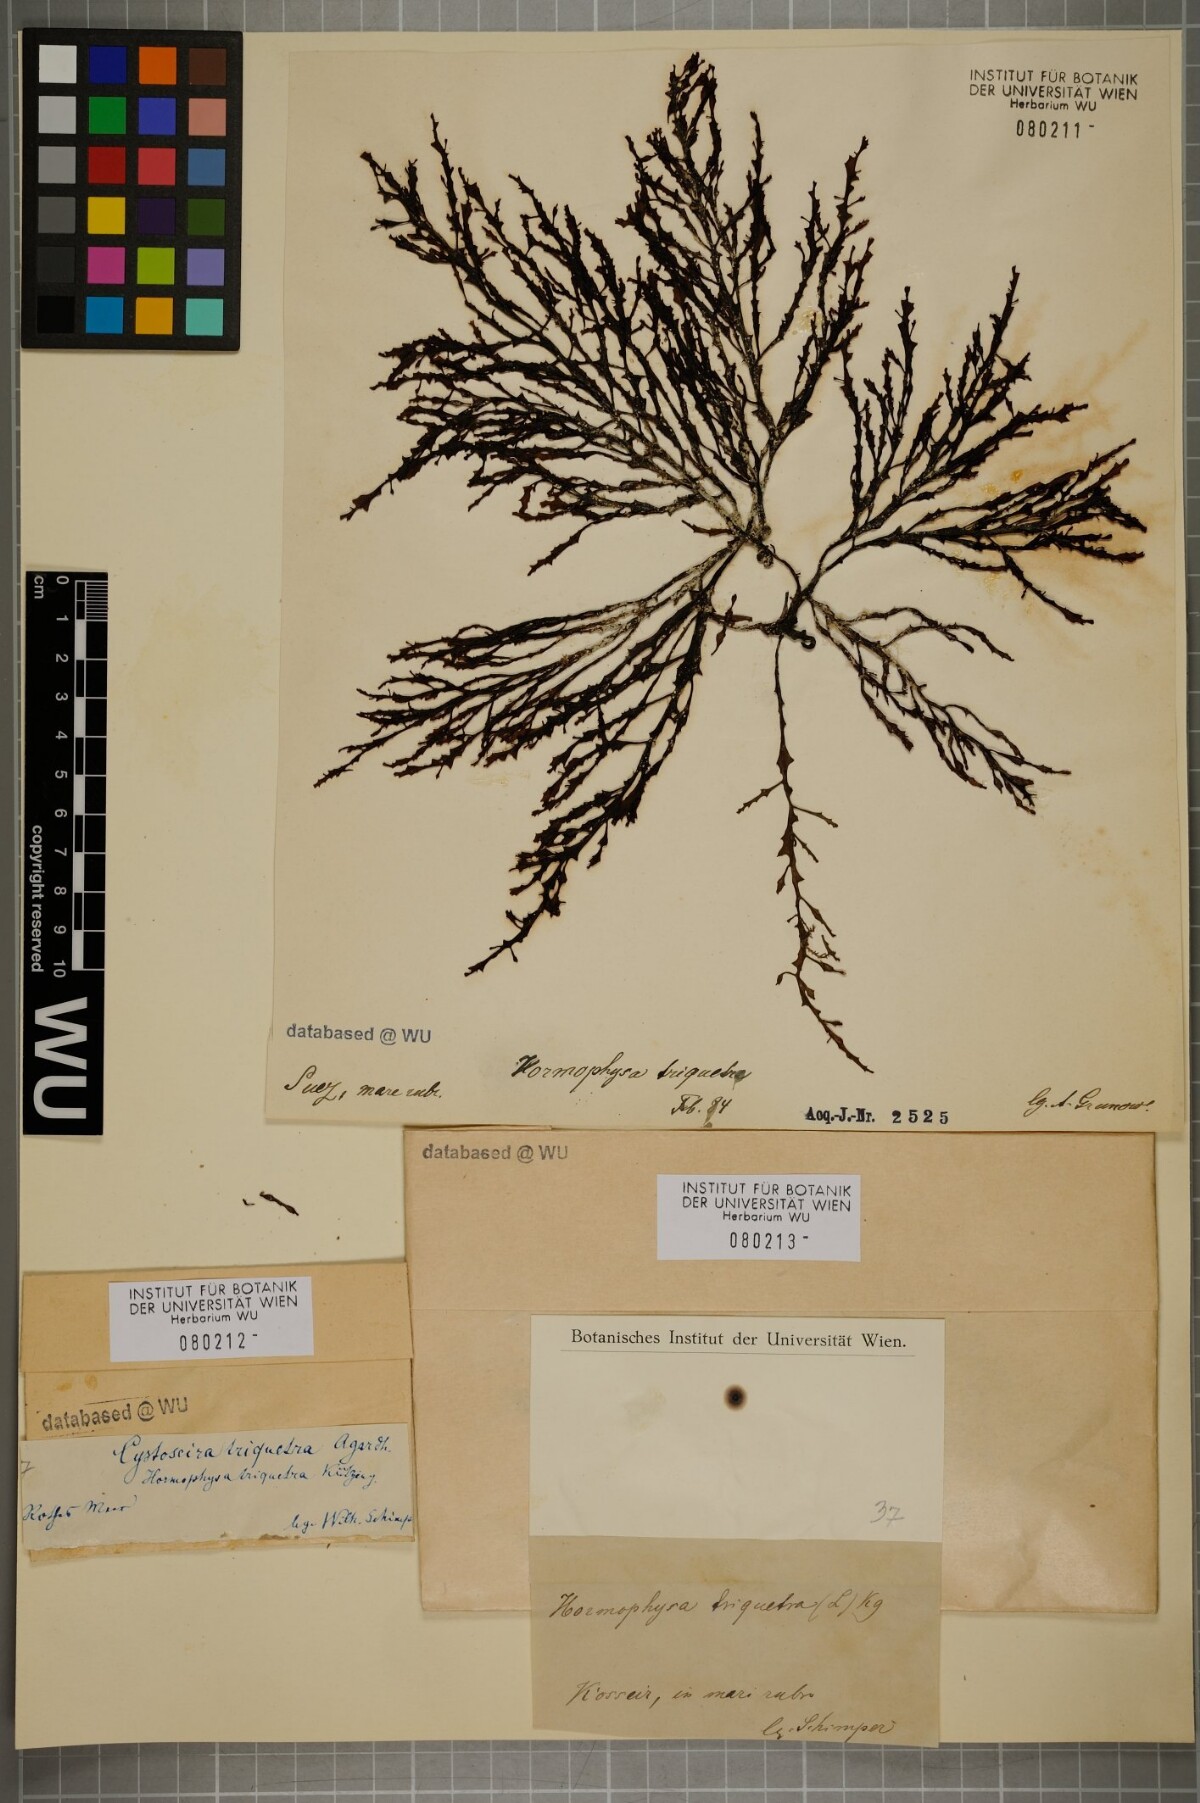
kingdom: Chromista
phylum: Ochrophyta
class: Phaeophyceae
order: Fucales
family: Sargassaceae
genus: Hormophysa
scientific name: Hormophysa cuneiformis
